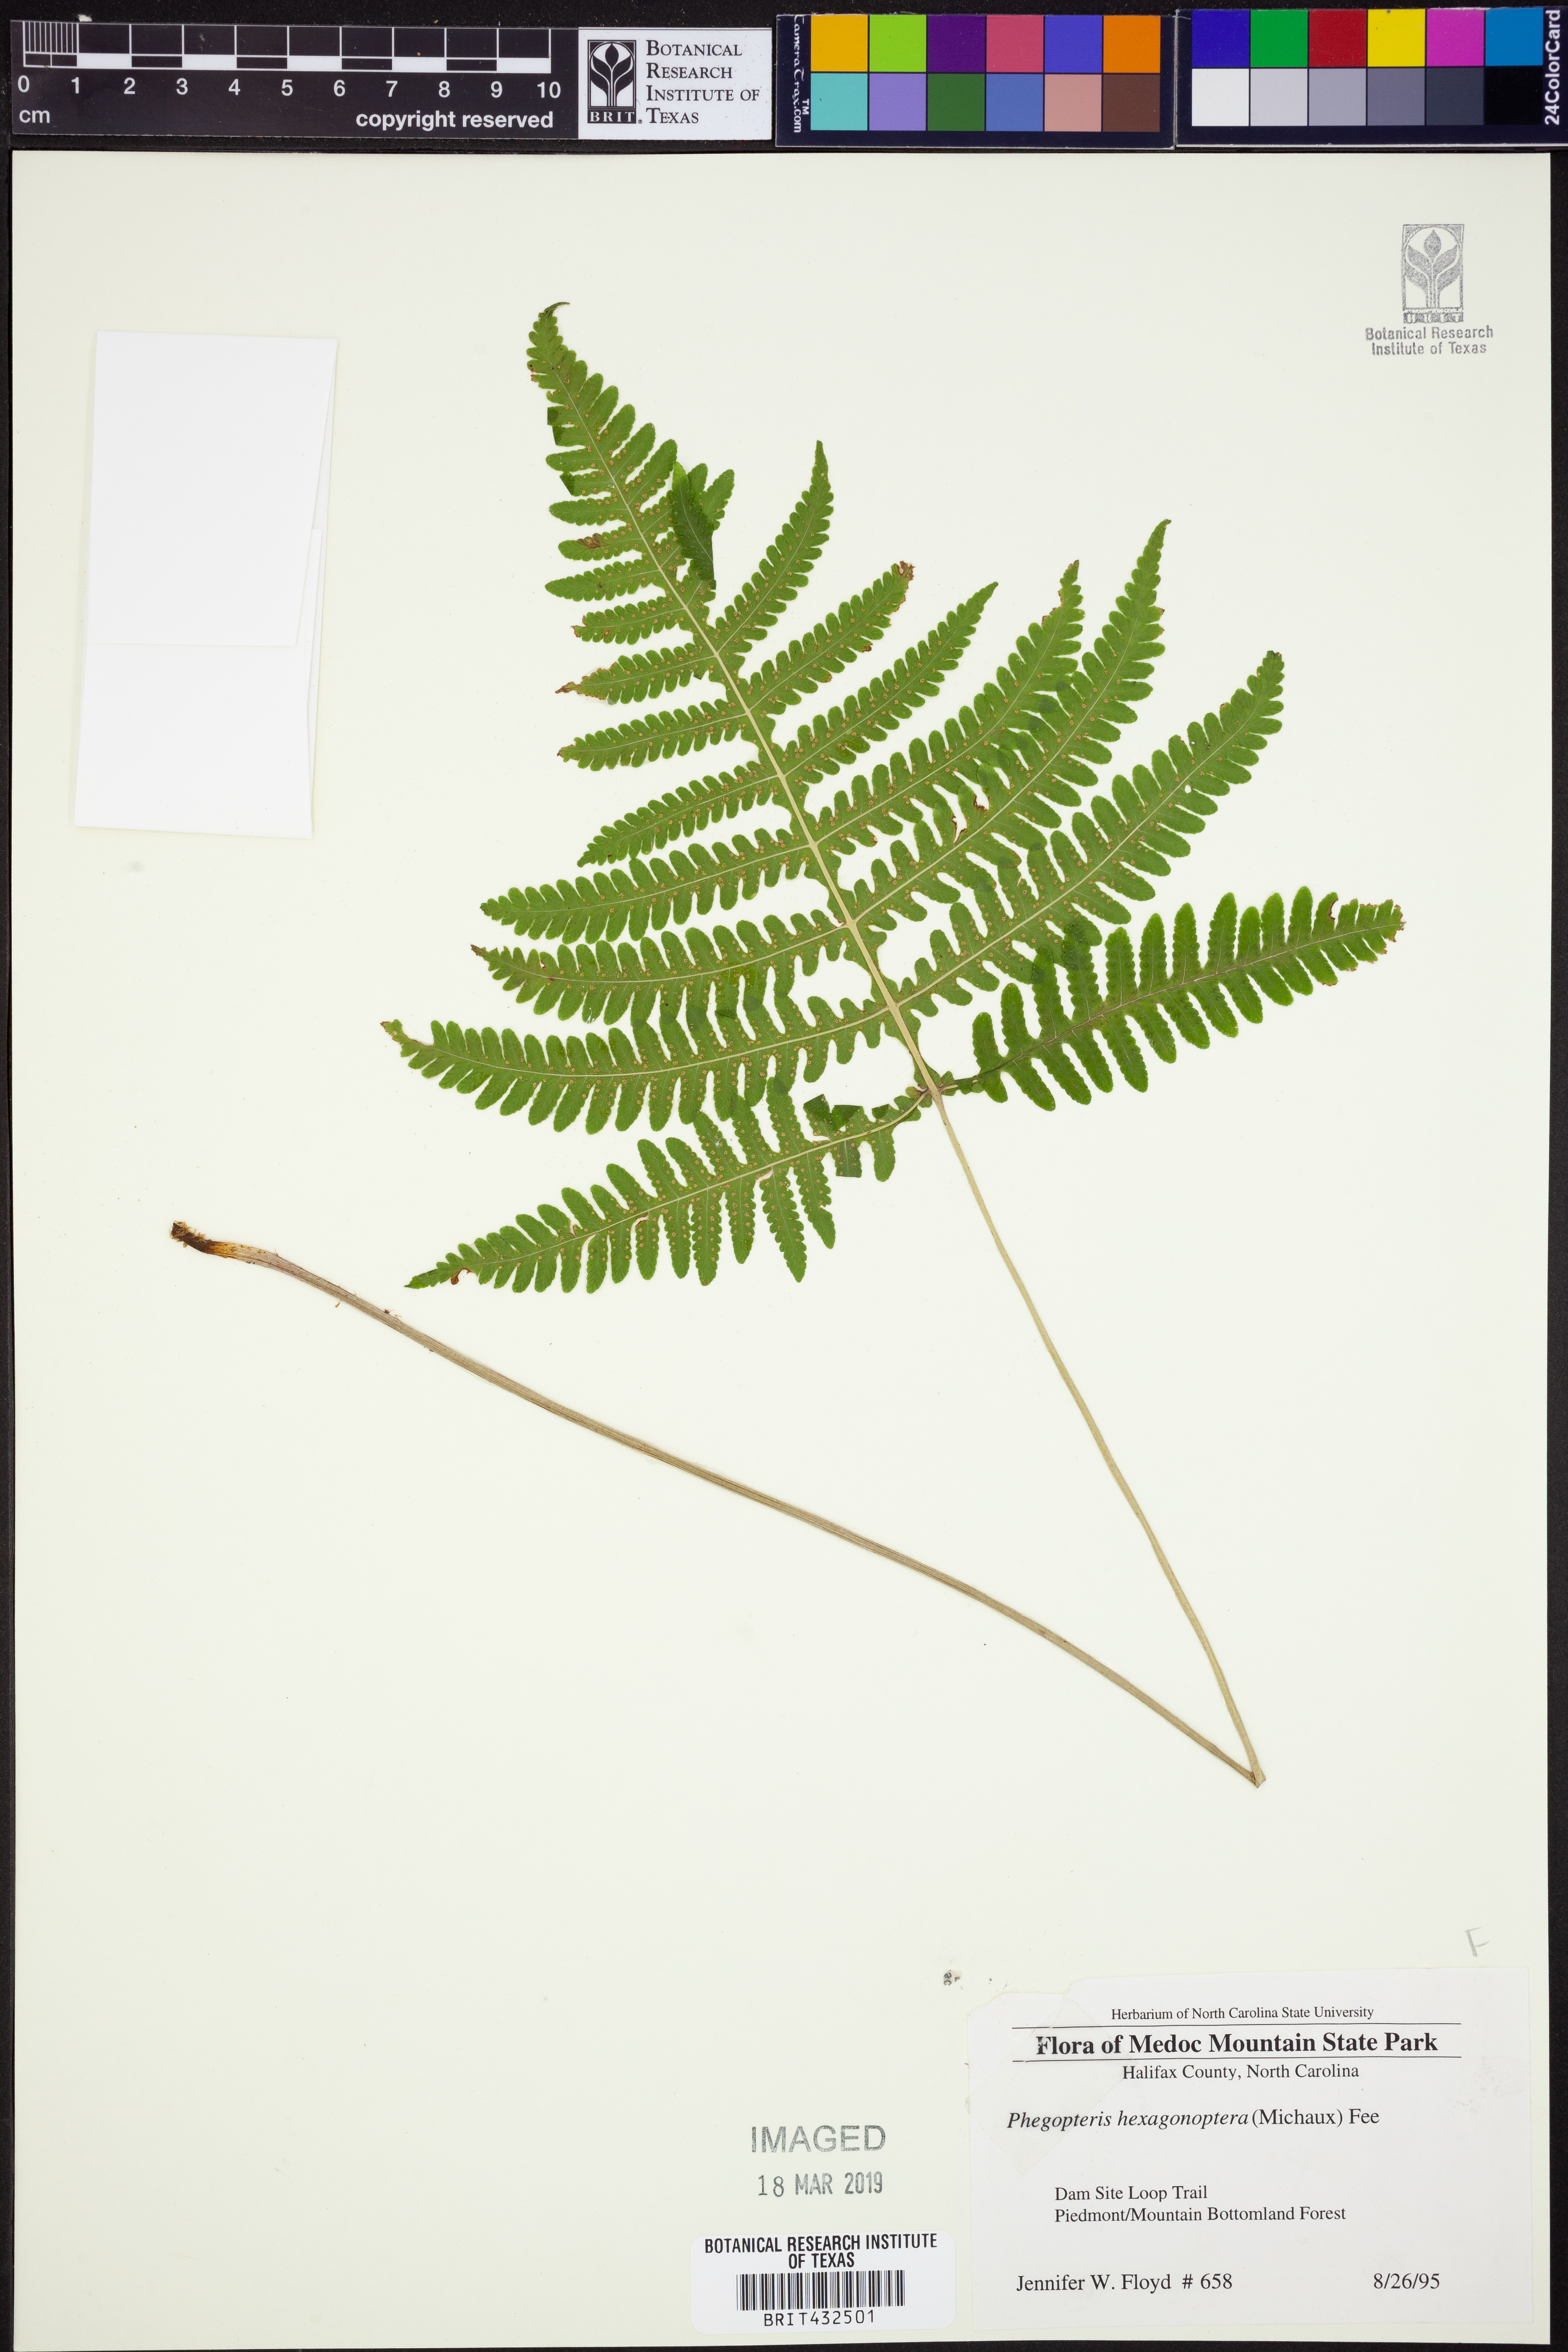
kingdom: Plantae
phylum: Tracheophyta
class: Polypodiopsida
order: Polypodiales
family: Thelypteridaceae
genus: Phegopteris
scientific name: Phegopteris hexagonoptera
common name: Broad beech fern
